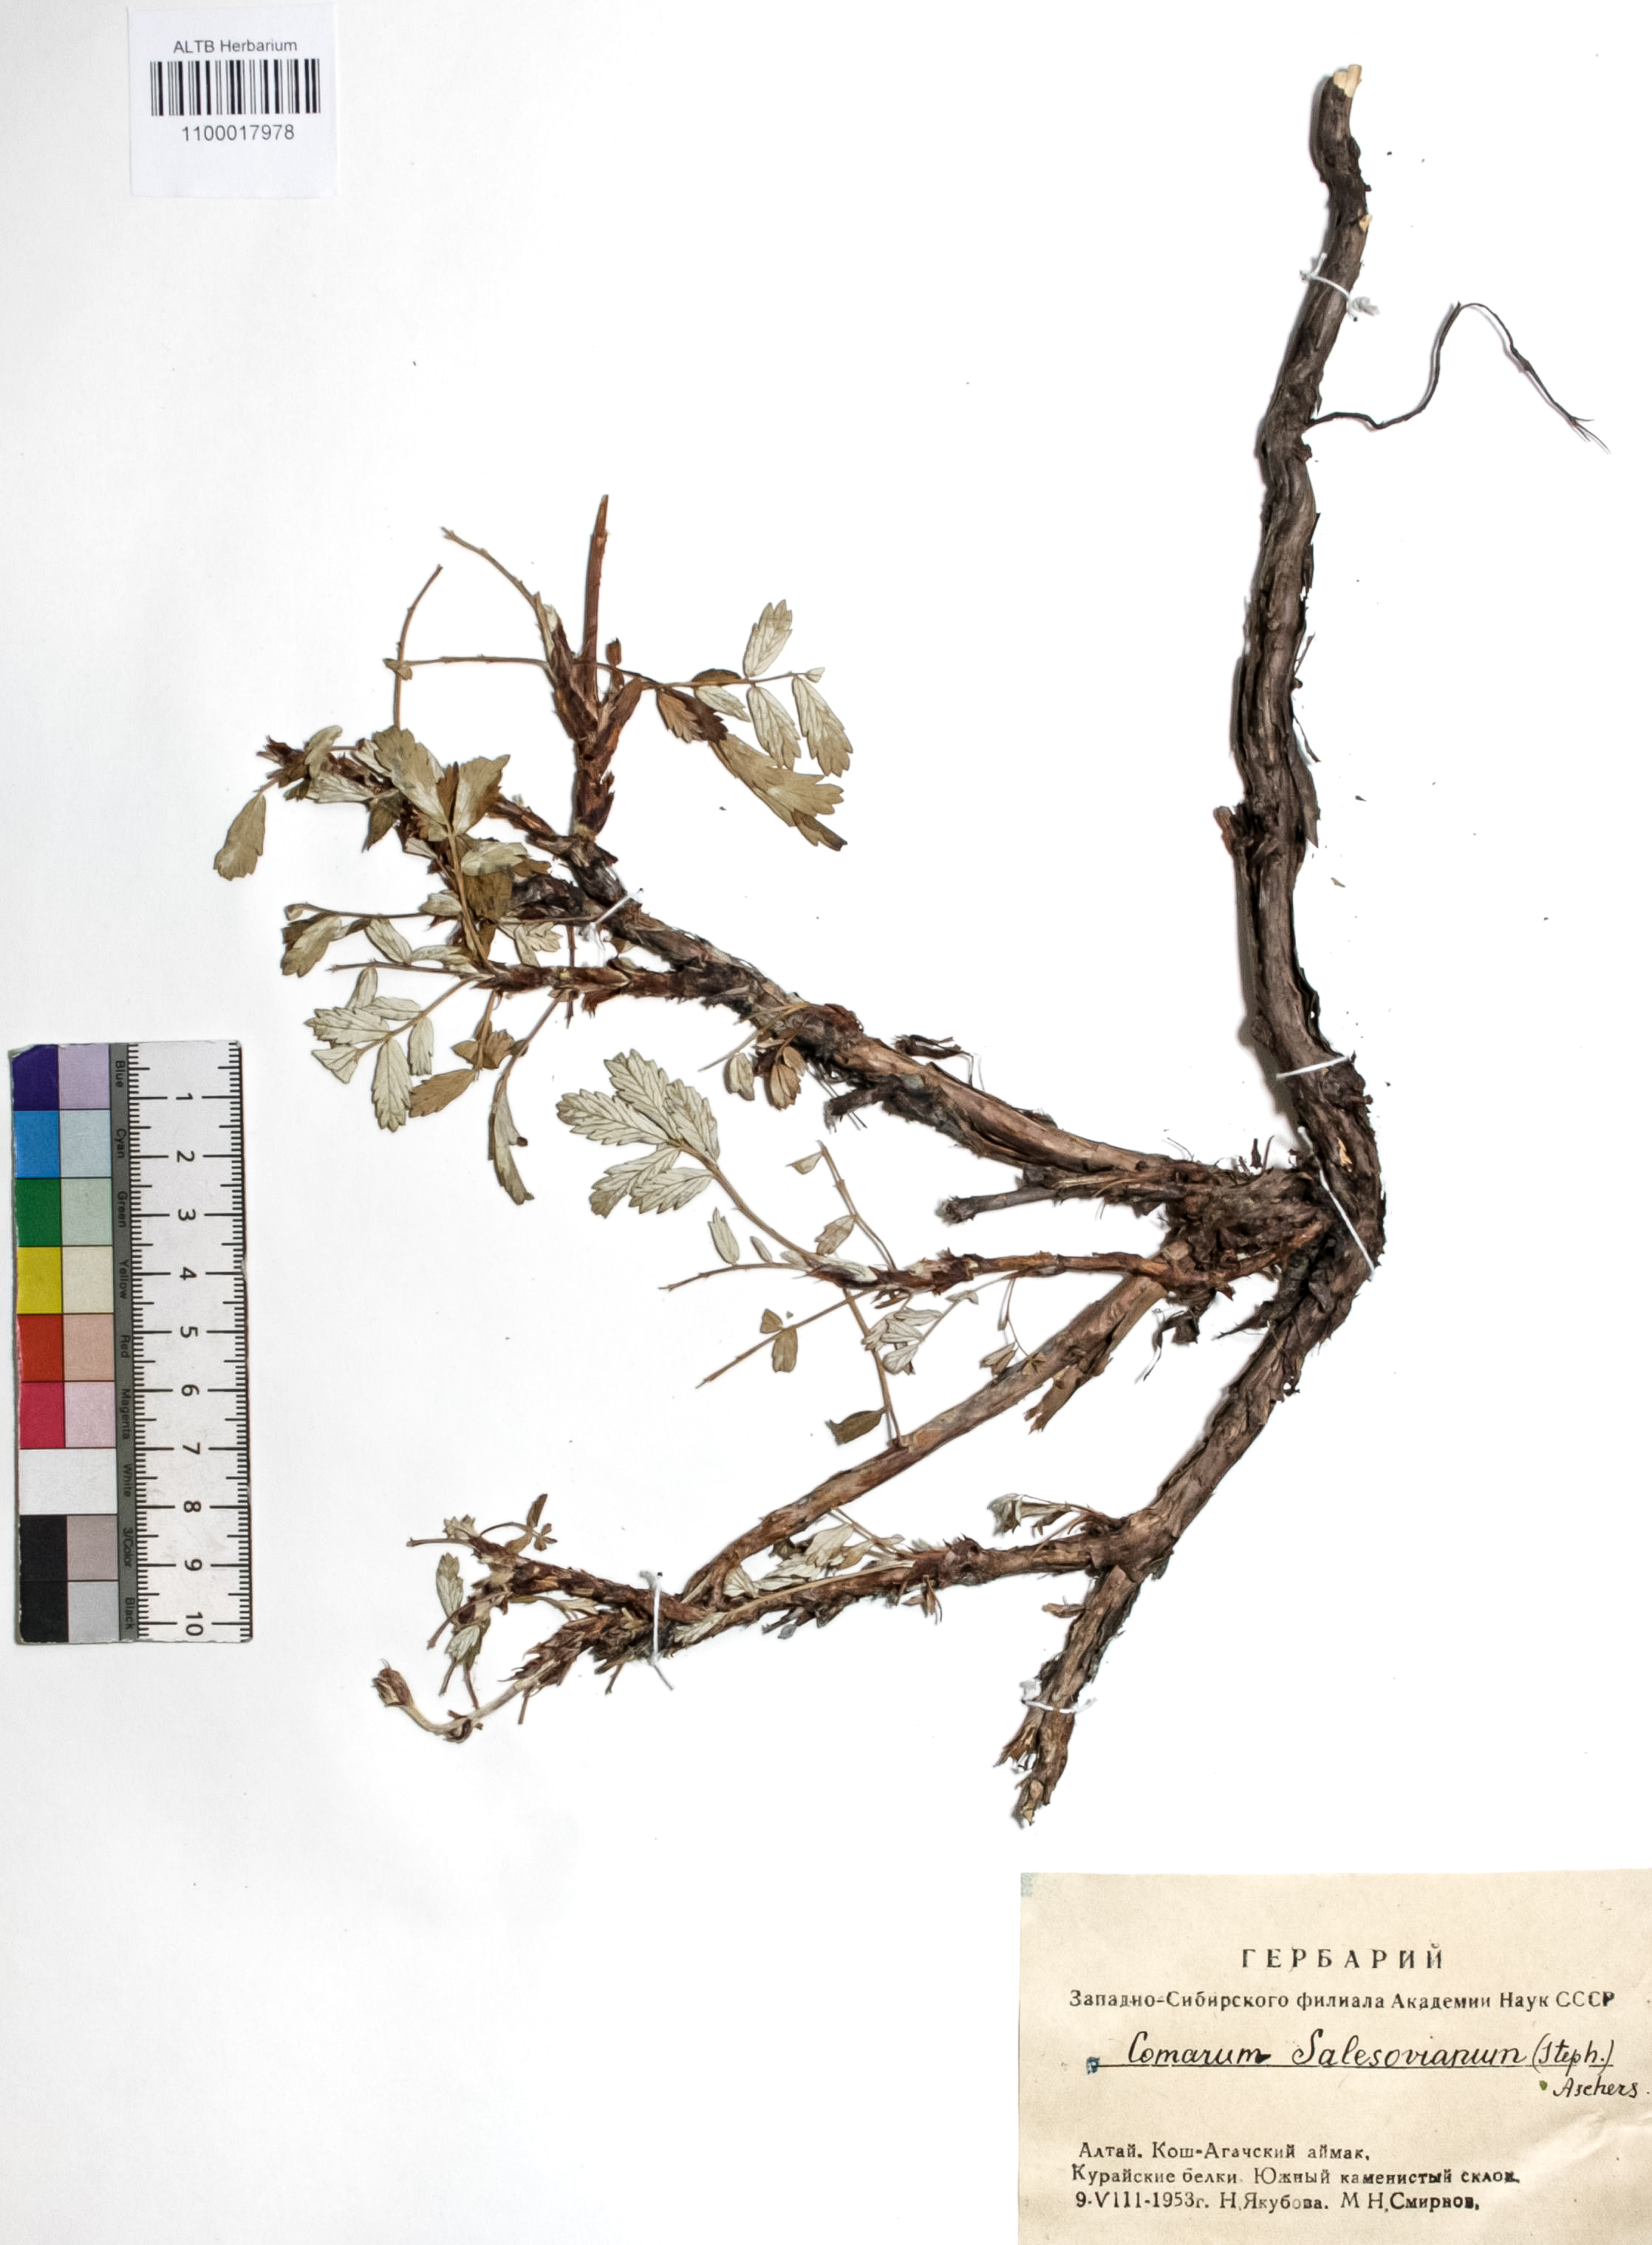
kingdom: Plantae
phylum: Tracheophyta
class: Magnoliopsida
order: Rosales
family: Rosaceae
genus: Farinopsis
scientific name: Farinopsis salesoviana
